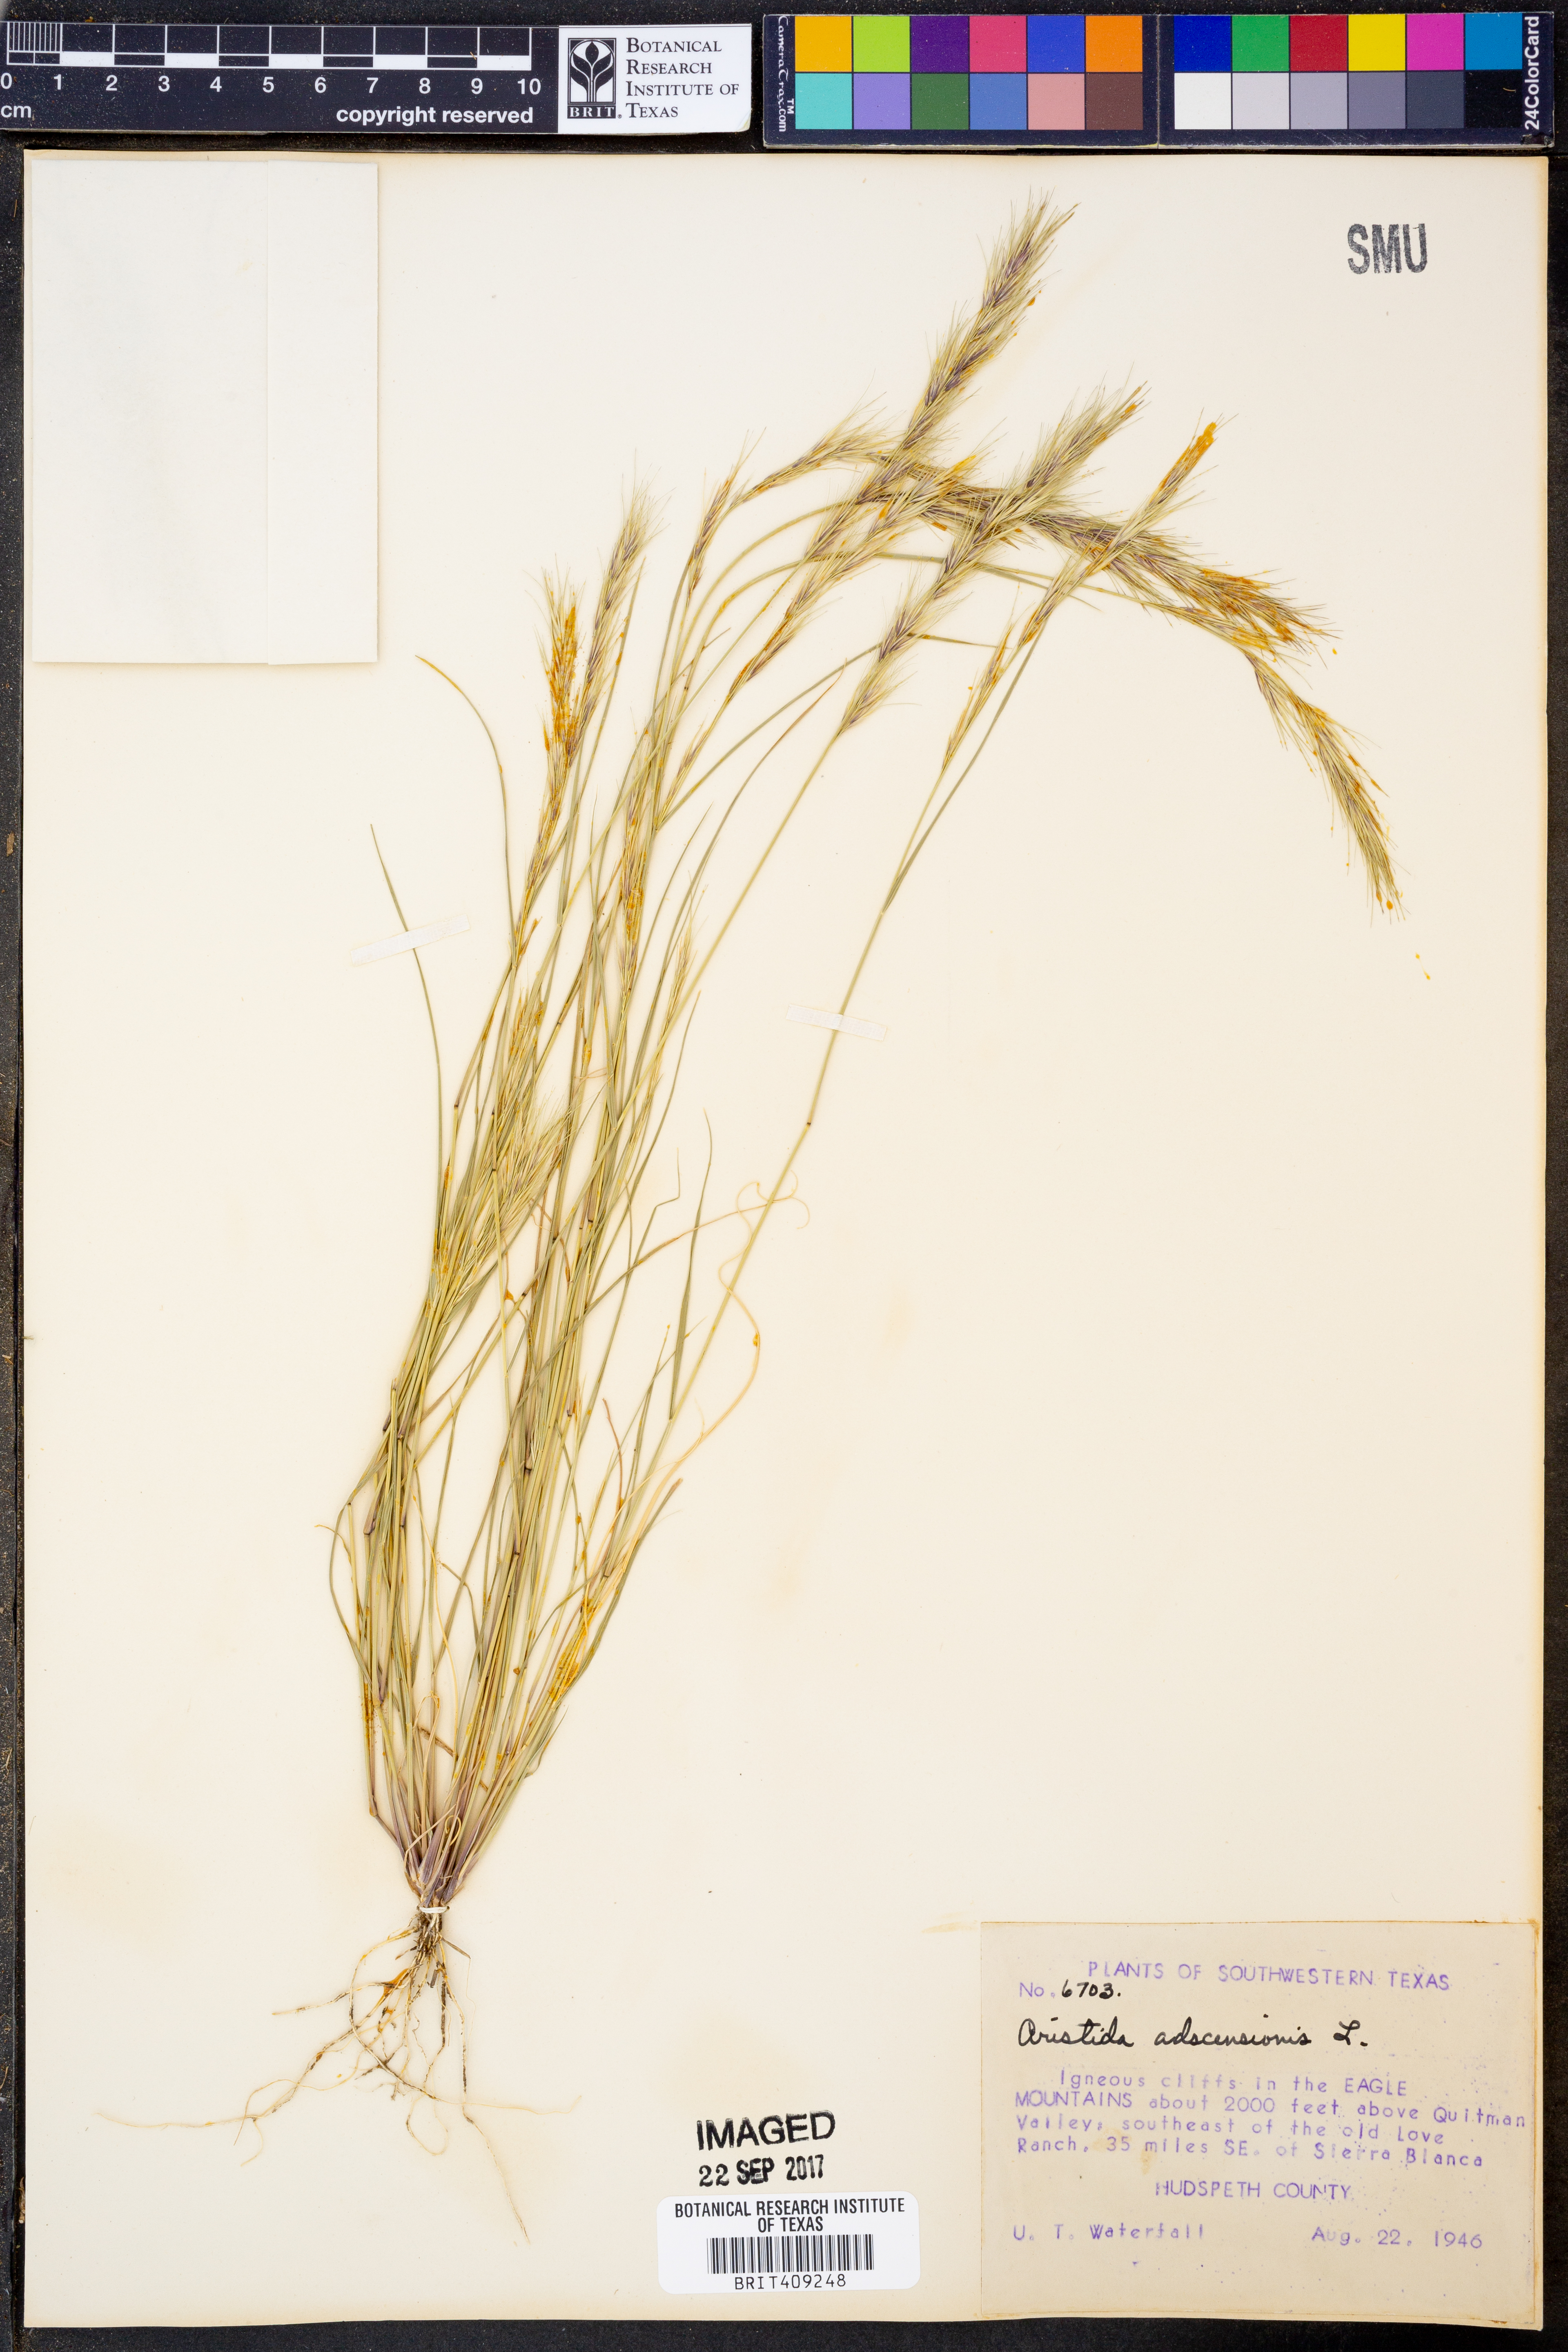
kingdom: Plantae
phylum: Tracheophyta
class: Liliopsida
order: Poales
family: Poaceae
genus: Aristida
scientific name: Aristida adscensionis
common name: Sixweeks threeawn
